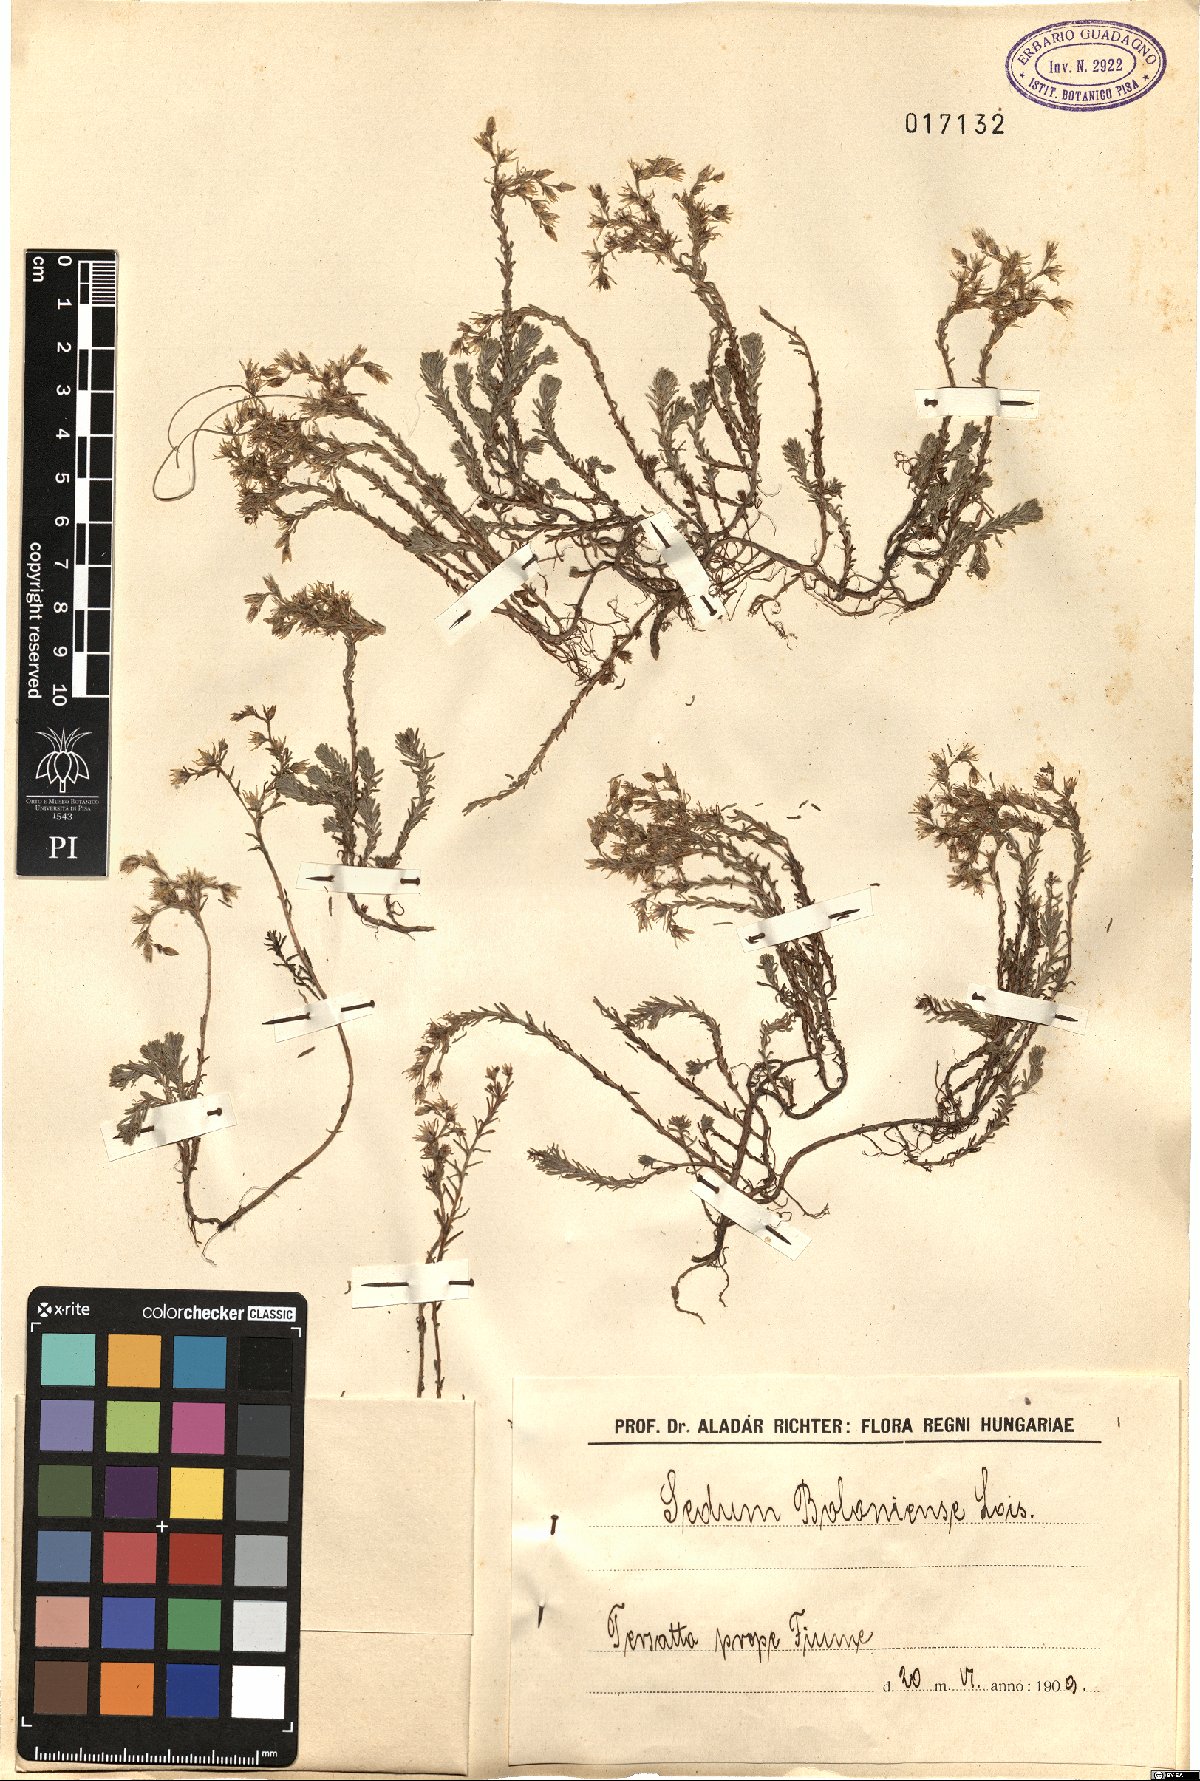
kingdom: Plantae
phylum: Tracheophyta
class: Magnoliopsida
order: Saxifragales
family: Crassulaceae
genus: Sedum
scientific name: Sedum sexangulare
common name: Tasteless stonecrop
